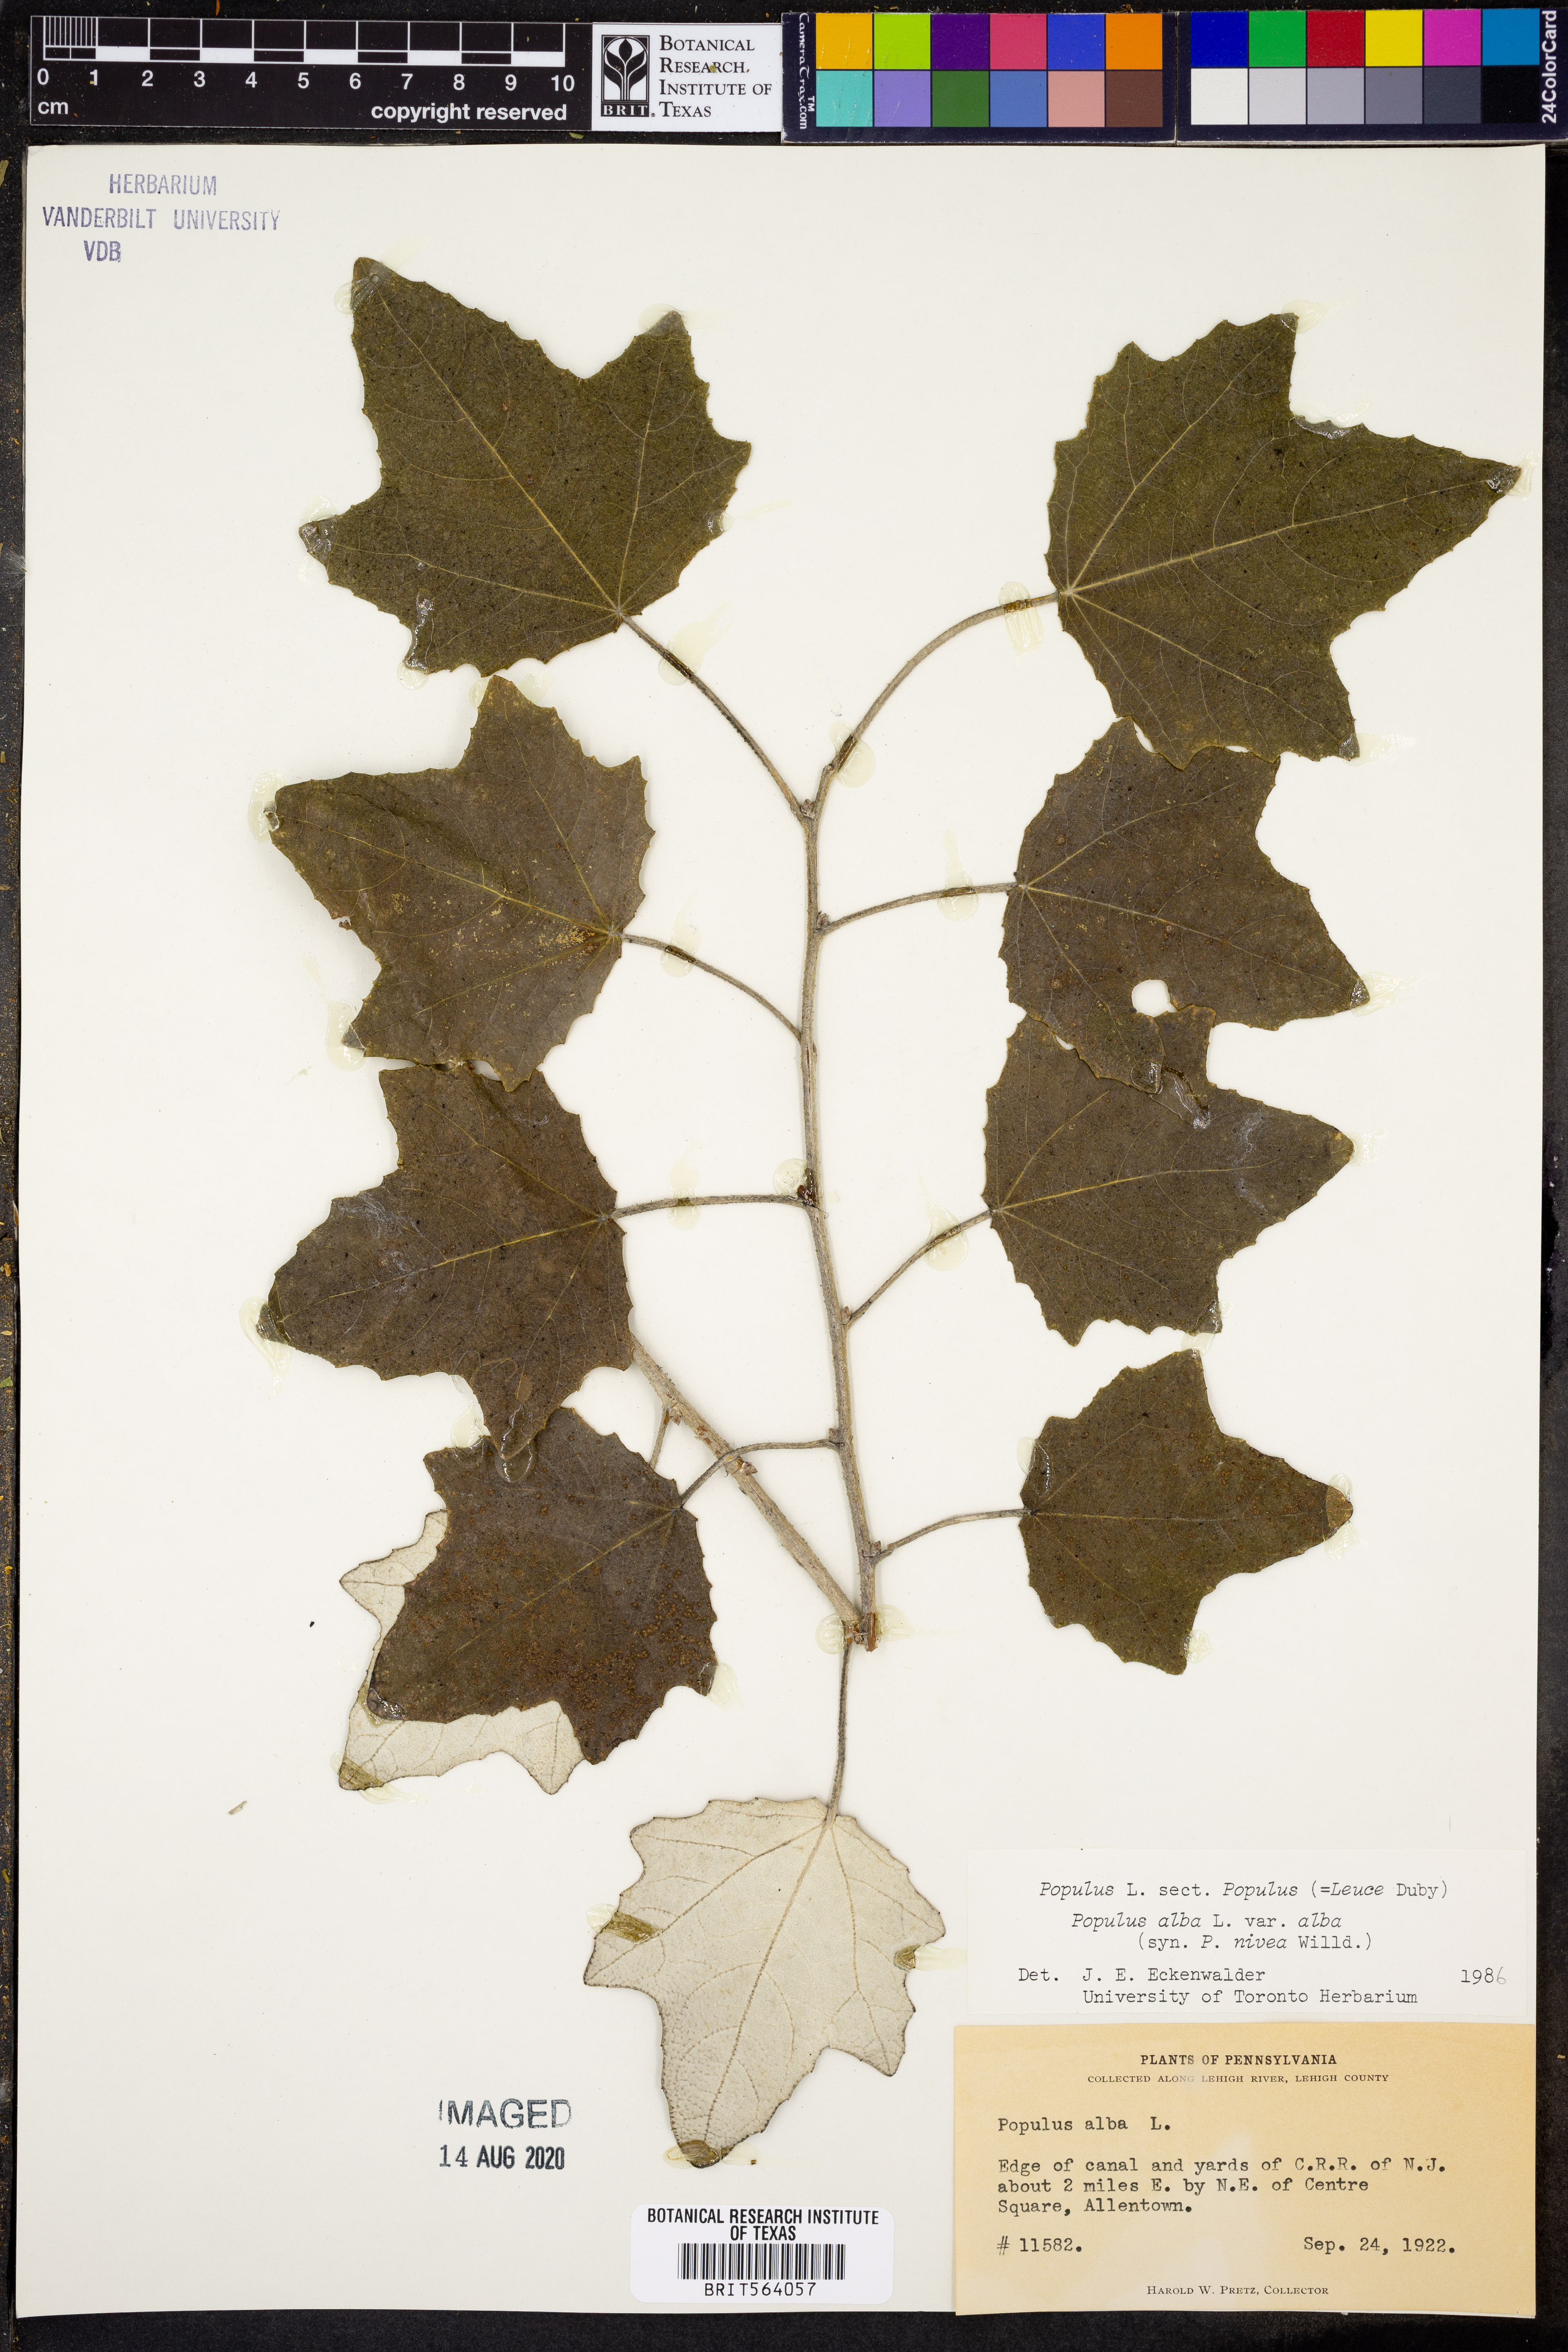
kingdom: Plantae
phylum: Tracheophyta
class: Magnoliopsida
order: Malpighiales
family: Salicaceae
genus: Populus
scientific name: Populus alba
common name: White poplar
